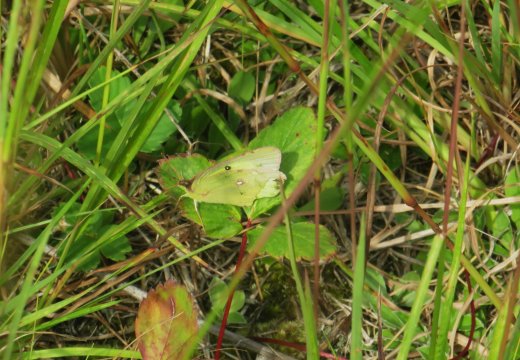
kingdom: Animalia
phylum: Arthropoda
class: Insecta
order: Lepidoptera
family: Pieridae
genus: Colias
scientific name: Colias philodice
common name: Clouded Sulphur
